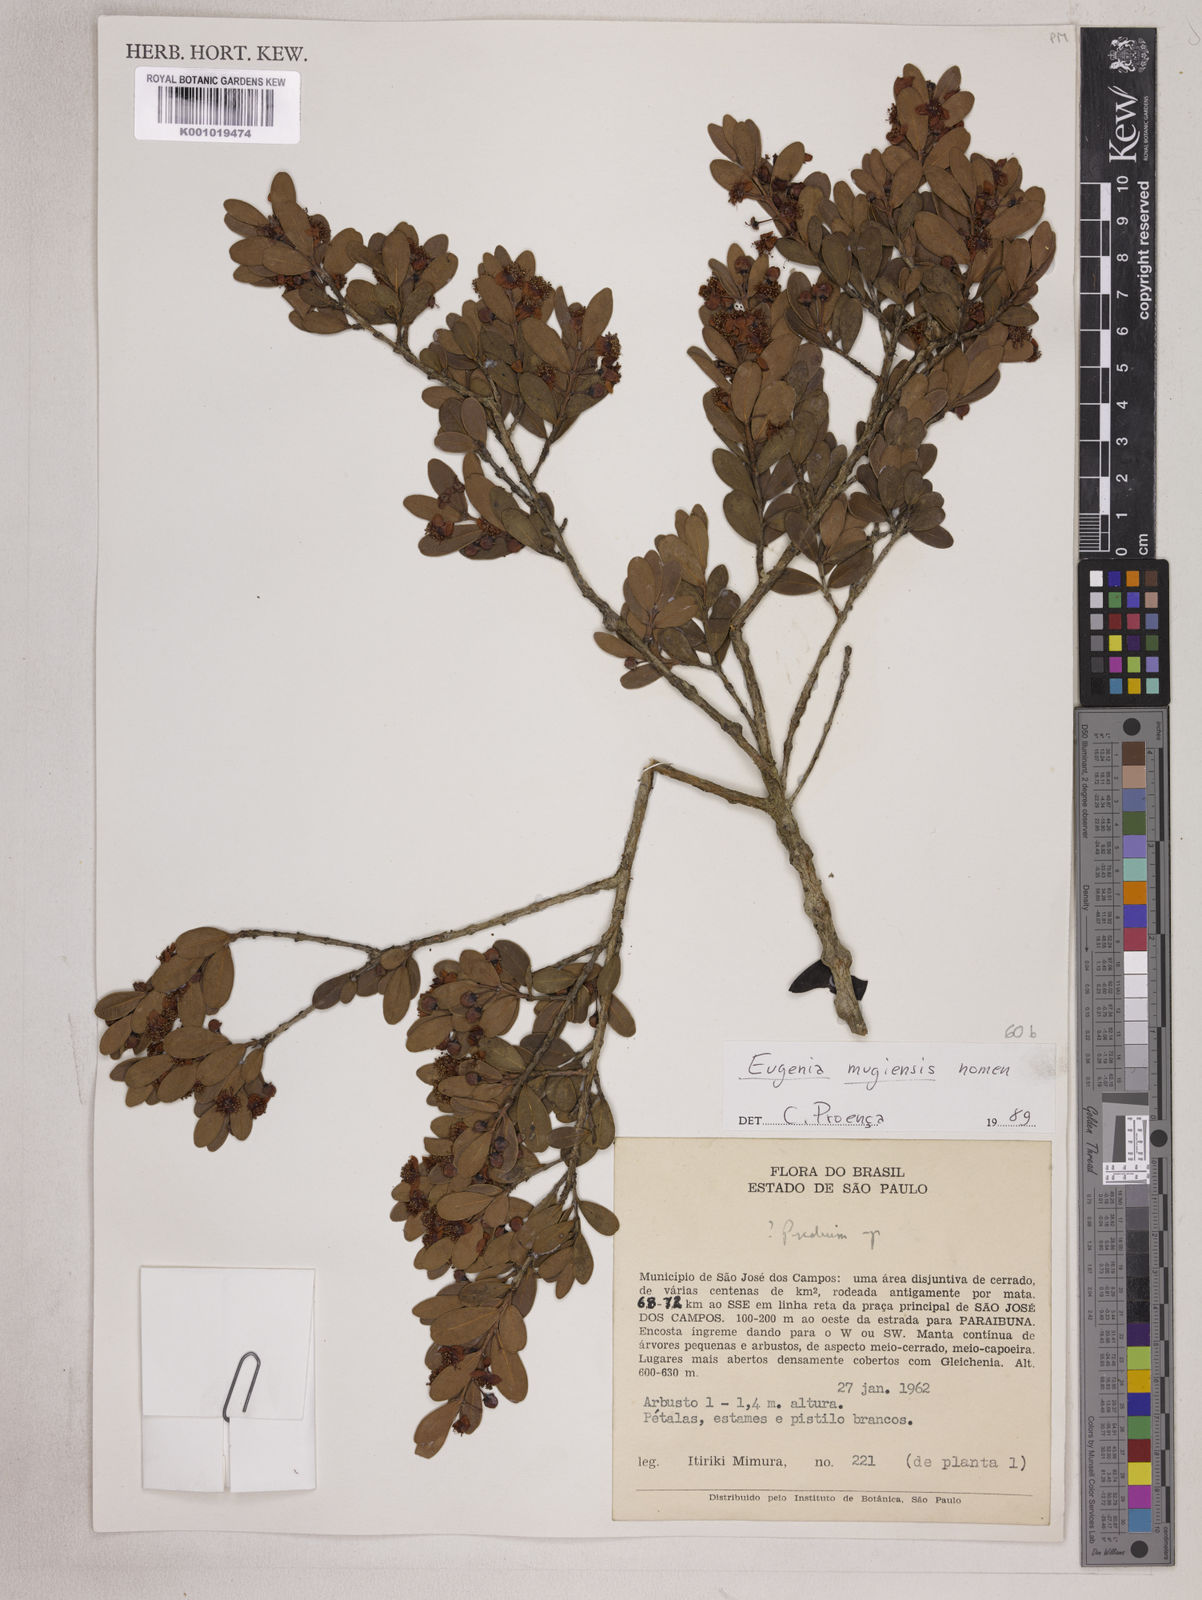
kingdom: Plantae
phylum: Tracheophyta
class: Magnoliopsida
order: Myrtales
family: Myrtaceae
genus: Eugenia
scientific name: Eugenia punicifolia
